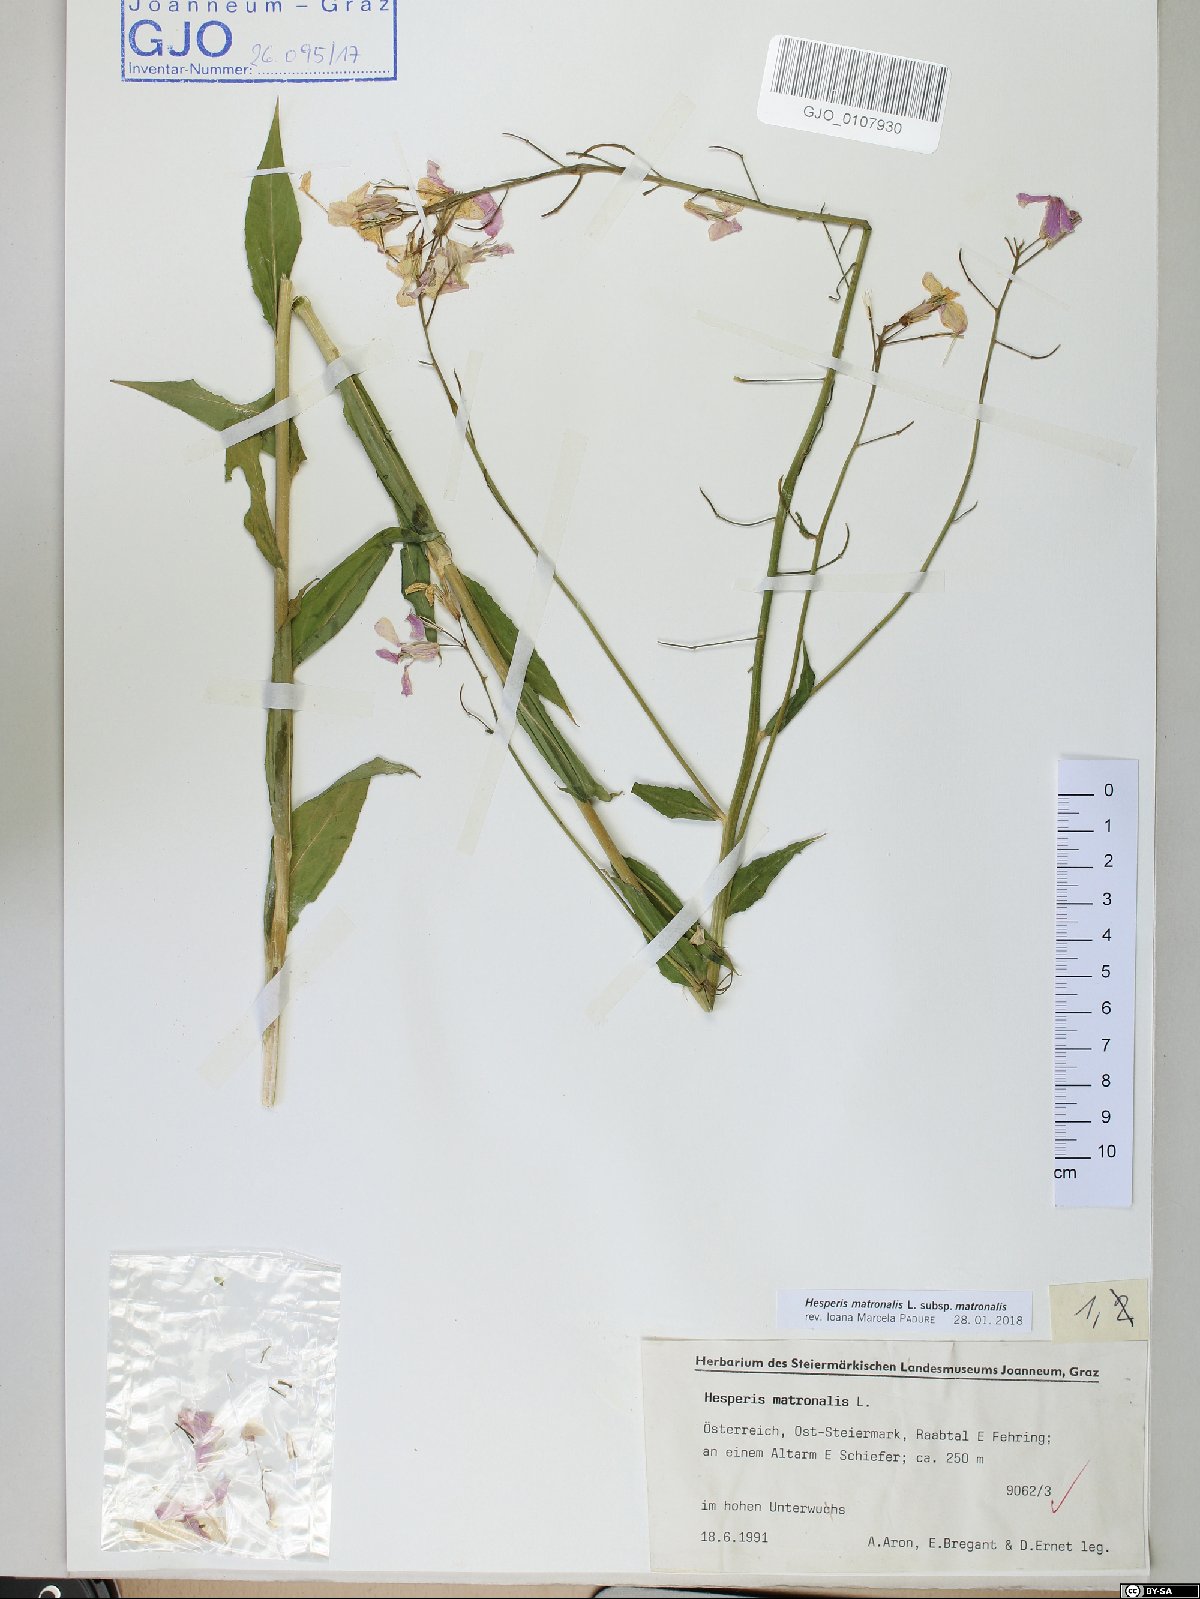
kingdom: Plantae
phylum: Tracheophyta
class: Magnoliopsida
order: Brassicales
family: Brassicaceae
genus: Hesperis
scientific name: Hesperis matronalis
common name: Dame's-violet
